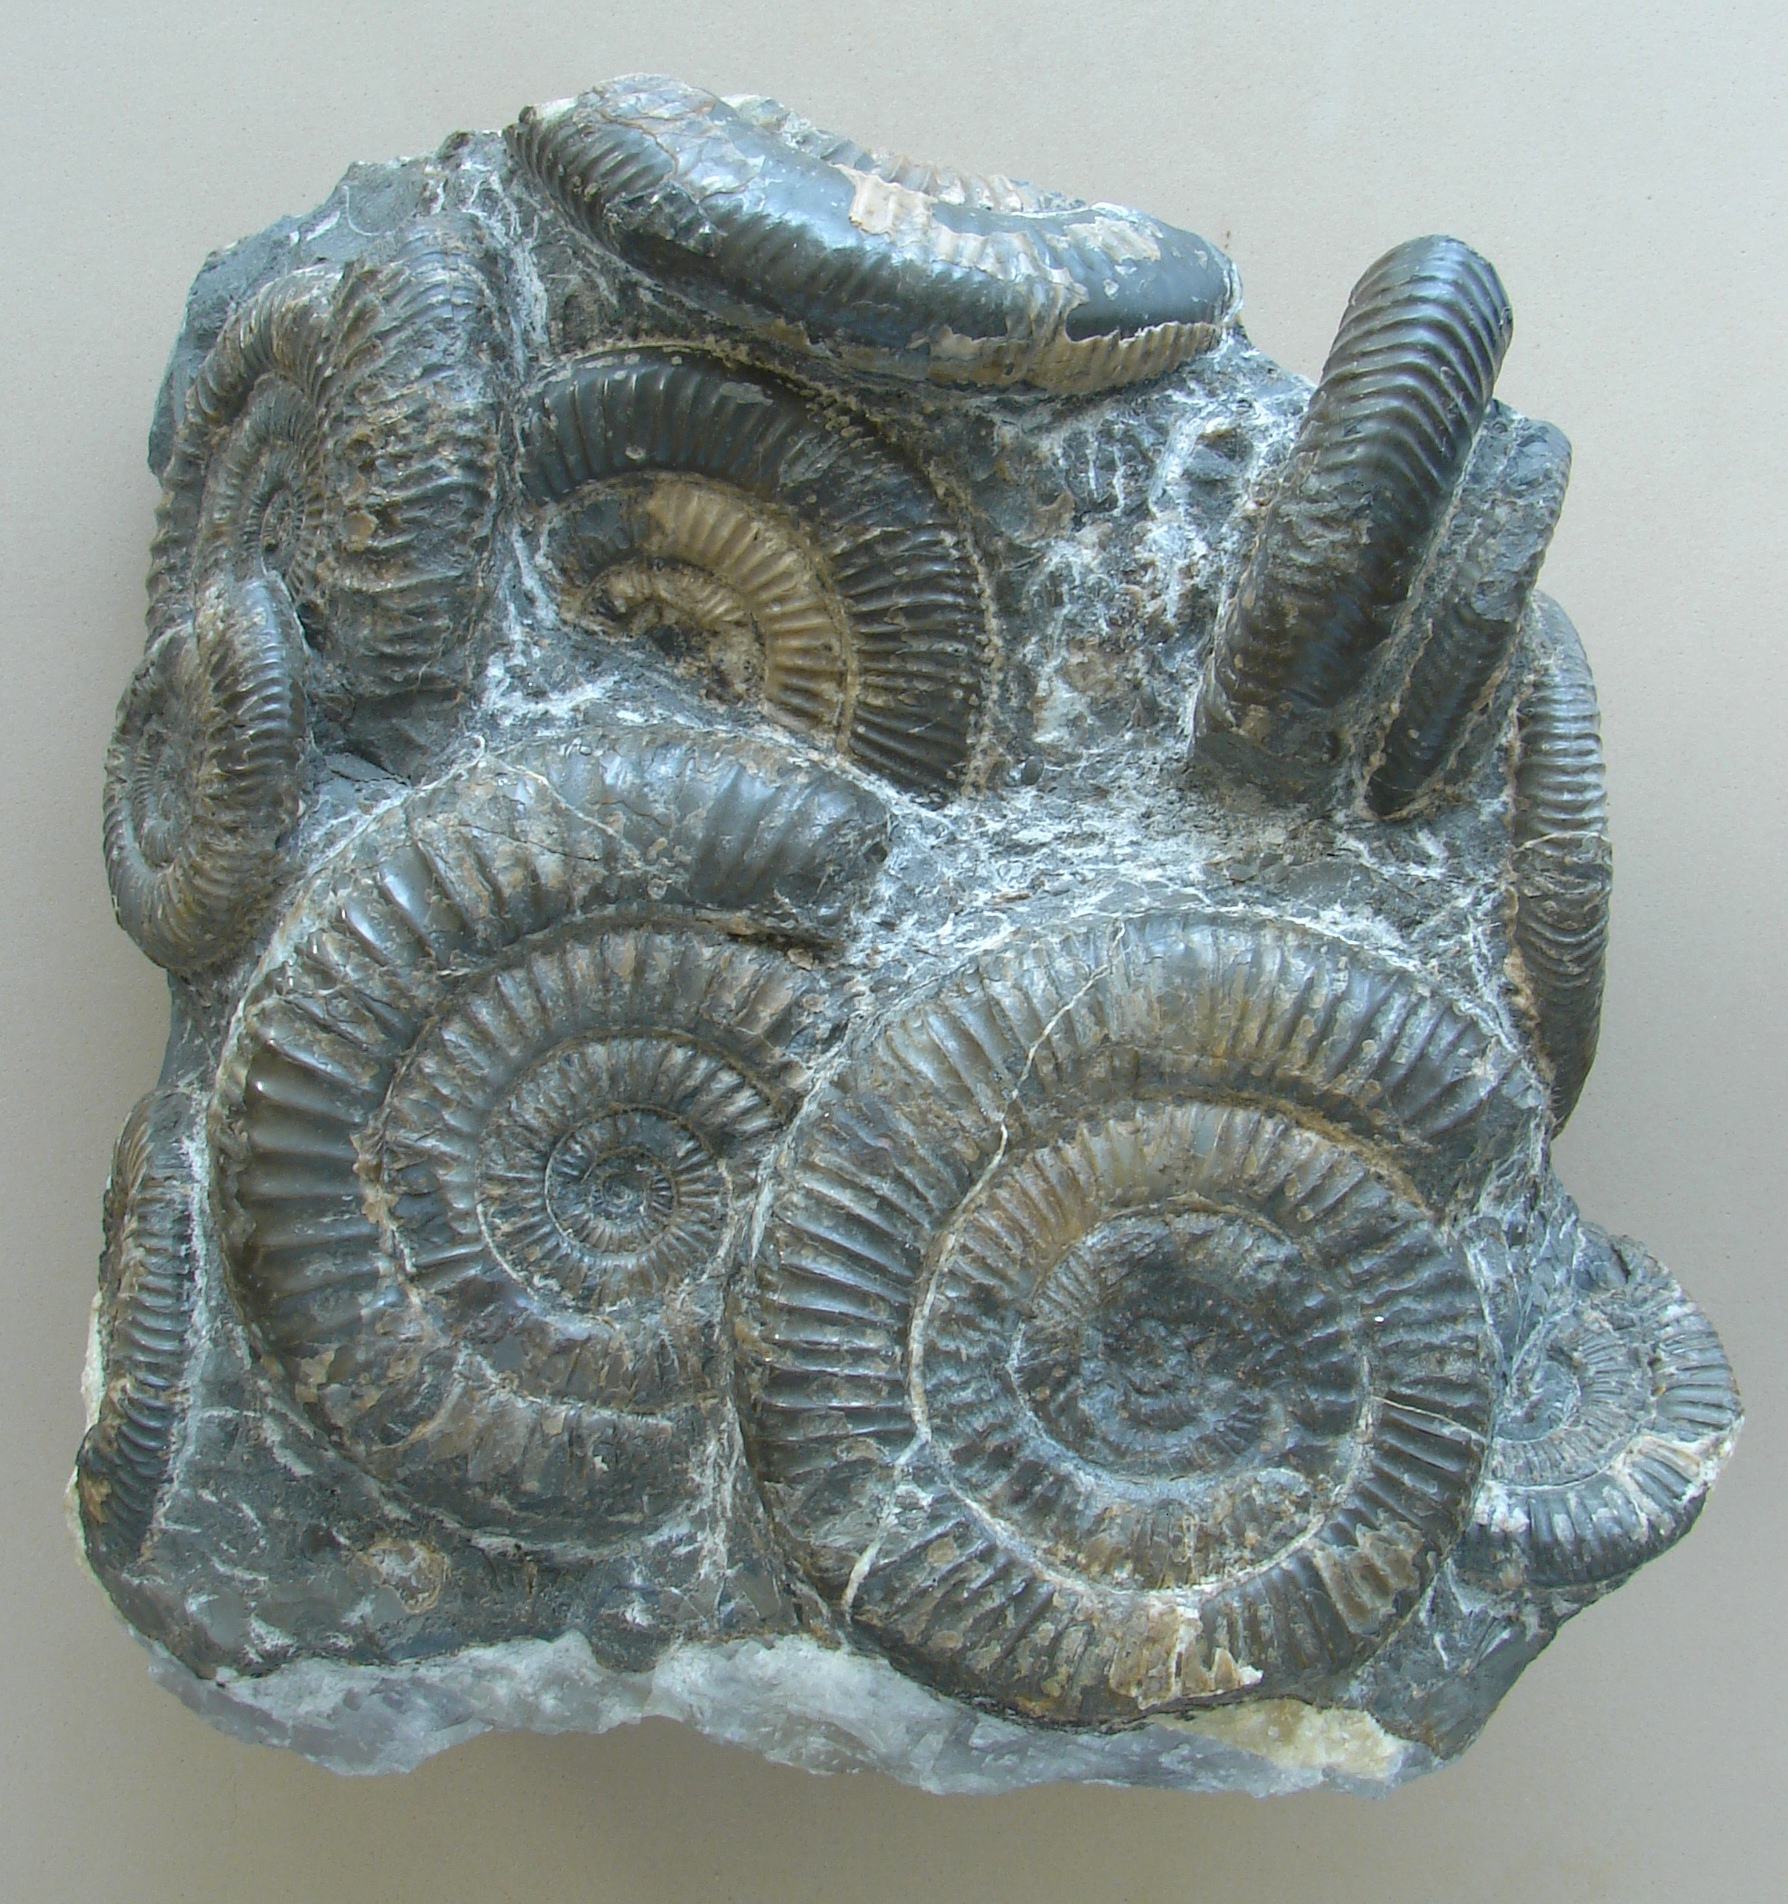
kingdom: Animalia
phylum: Mollusca
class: Cephalopoda
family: Dactylioceratidae
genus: Dactylioceras
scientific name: Dactylioceras
